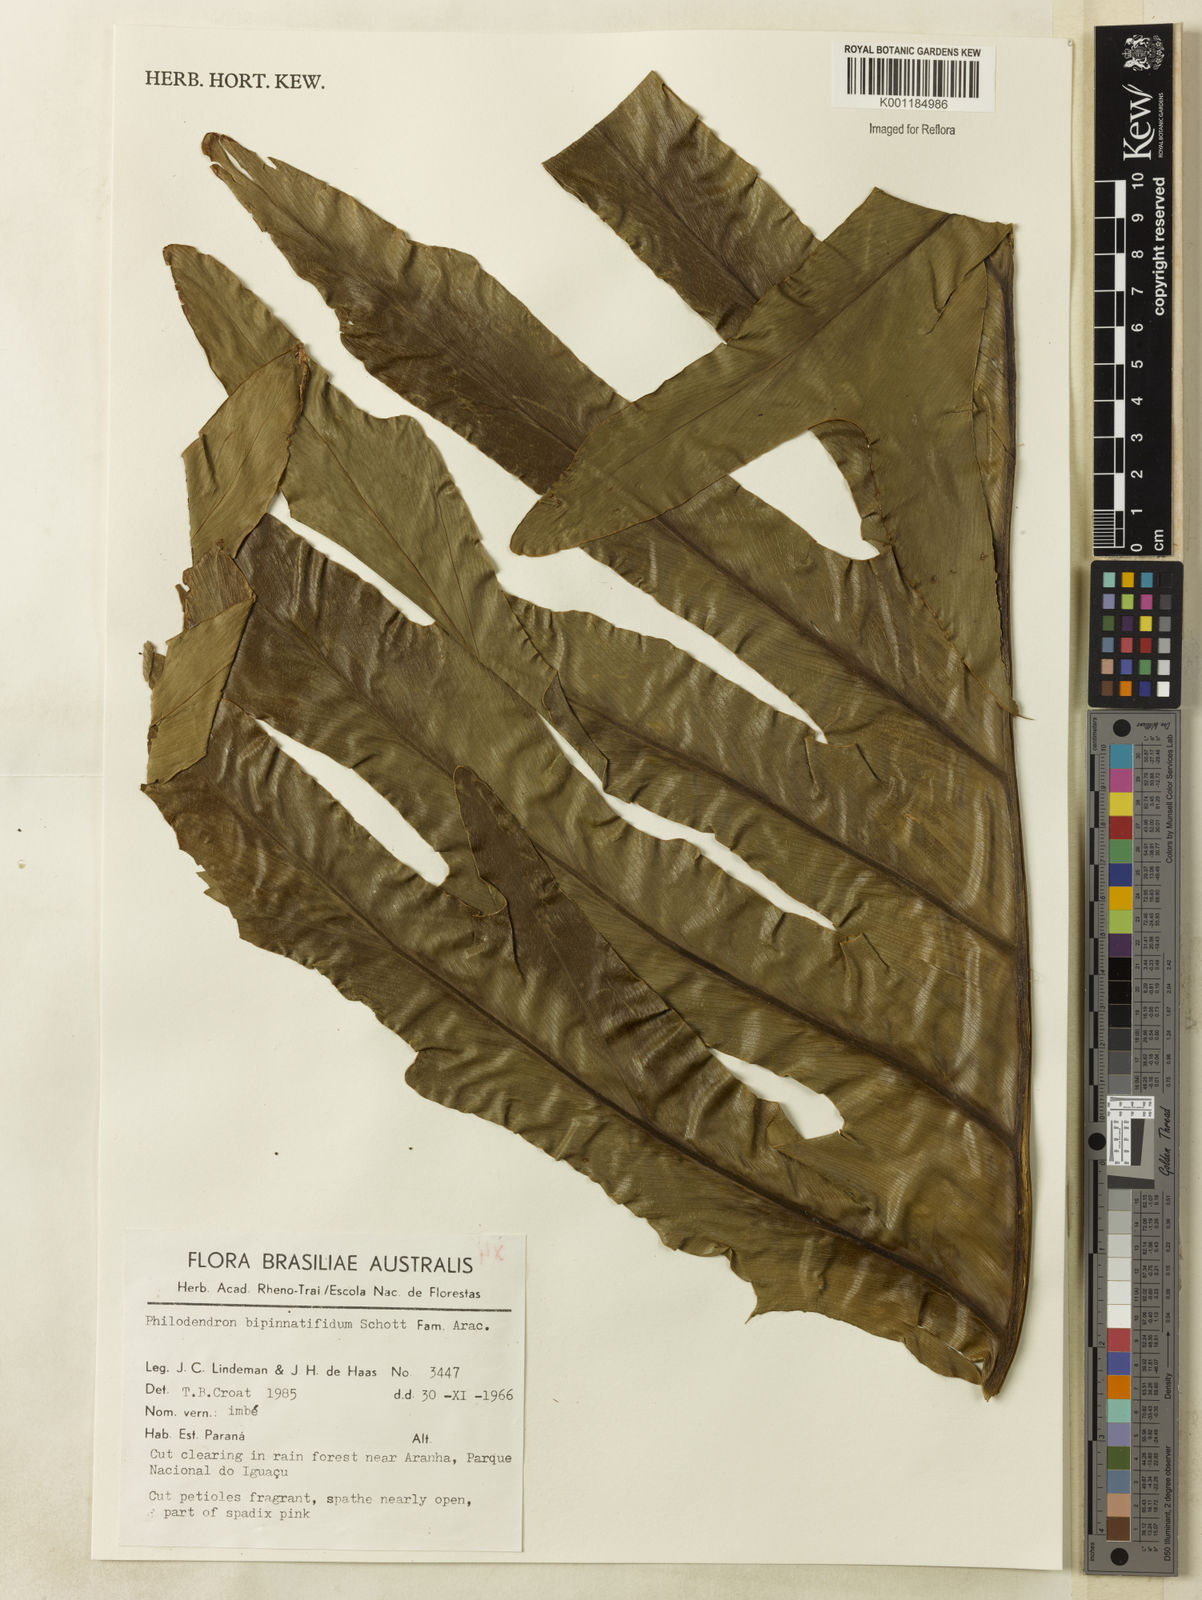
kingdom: Plantae
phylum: Tracheophyta
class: Liliopsida
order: Alismatales
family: Araceae
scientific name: Araceae
